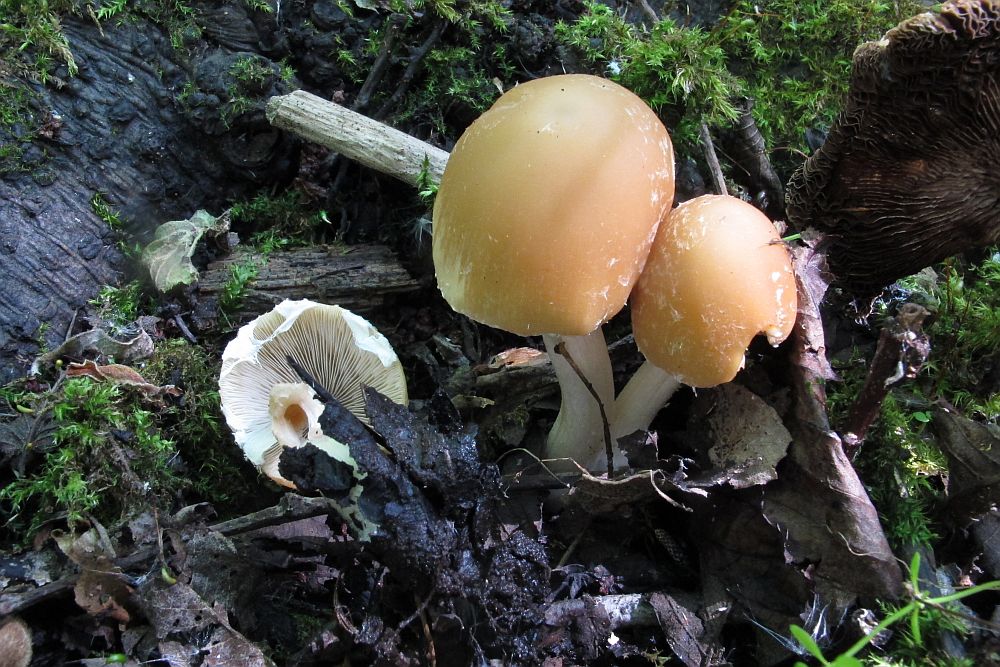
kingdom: Fungi
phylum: Basidiomycota
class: Agaricomycetes
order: Agaricales
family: Psathyrellaceae
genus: Candolleomyces
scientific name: Candolleomyces candolleanus
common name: Candolles mørkhat
